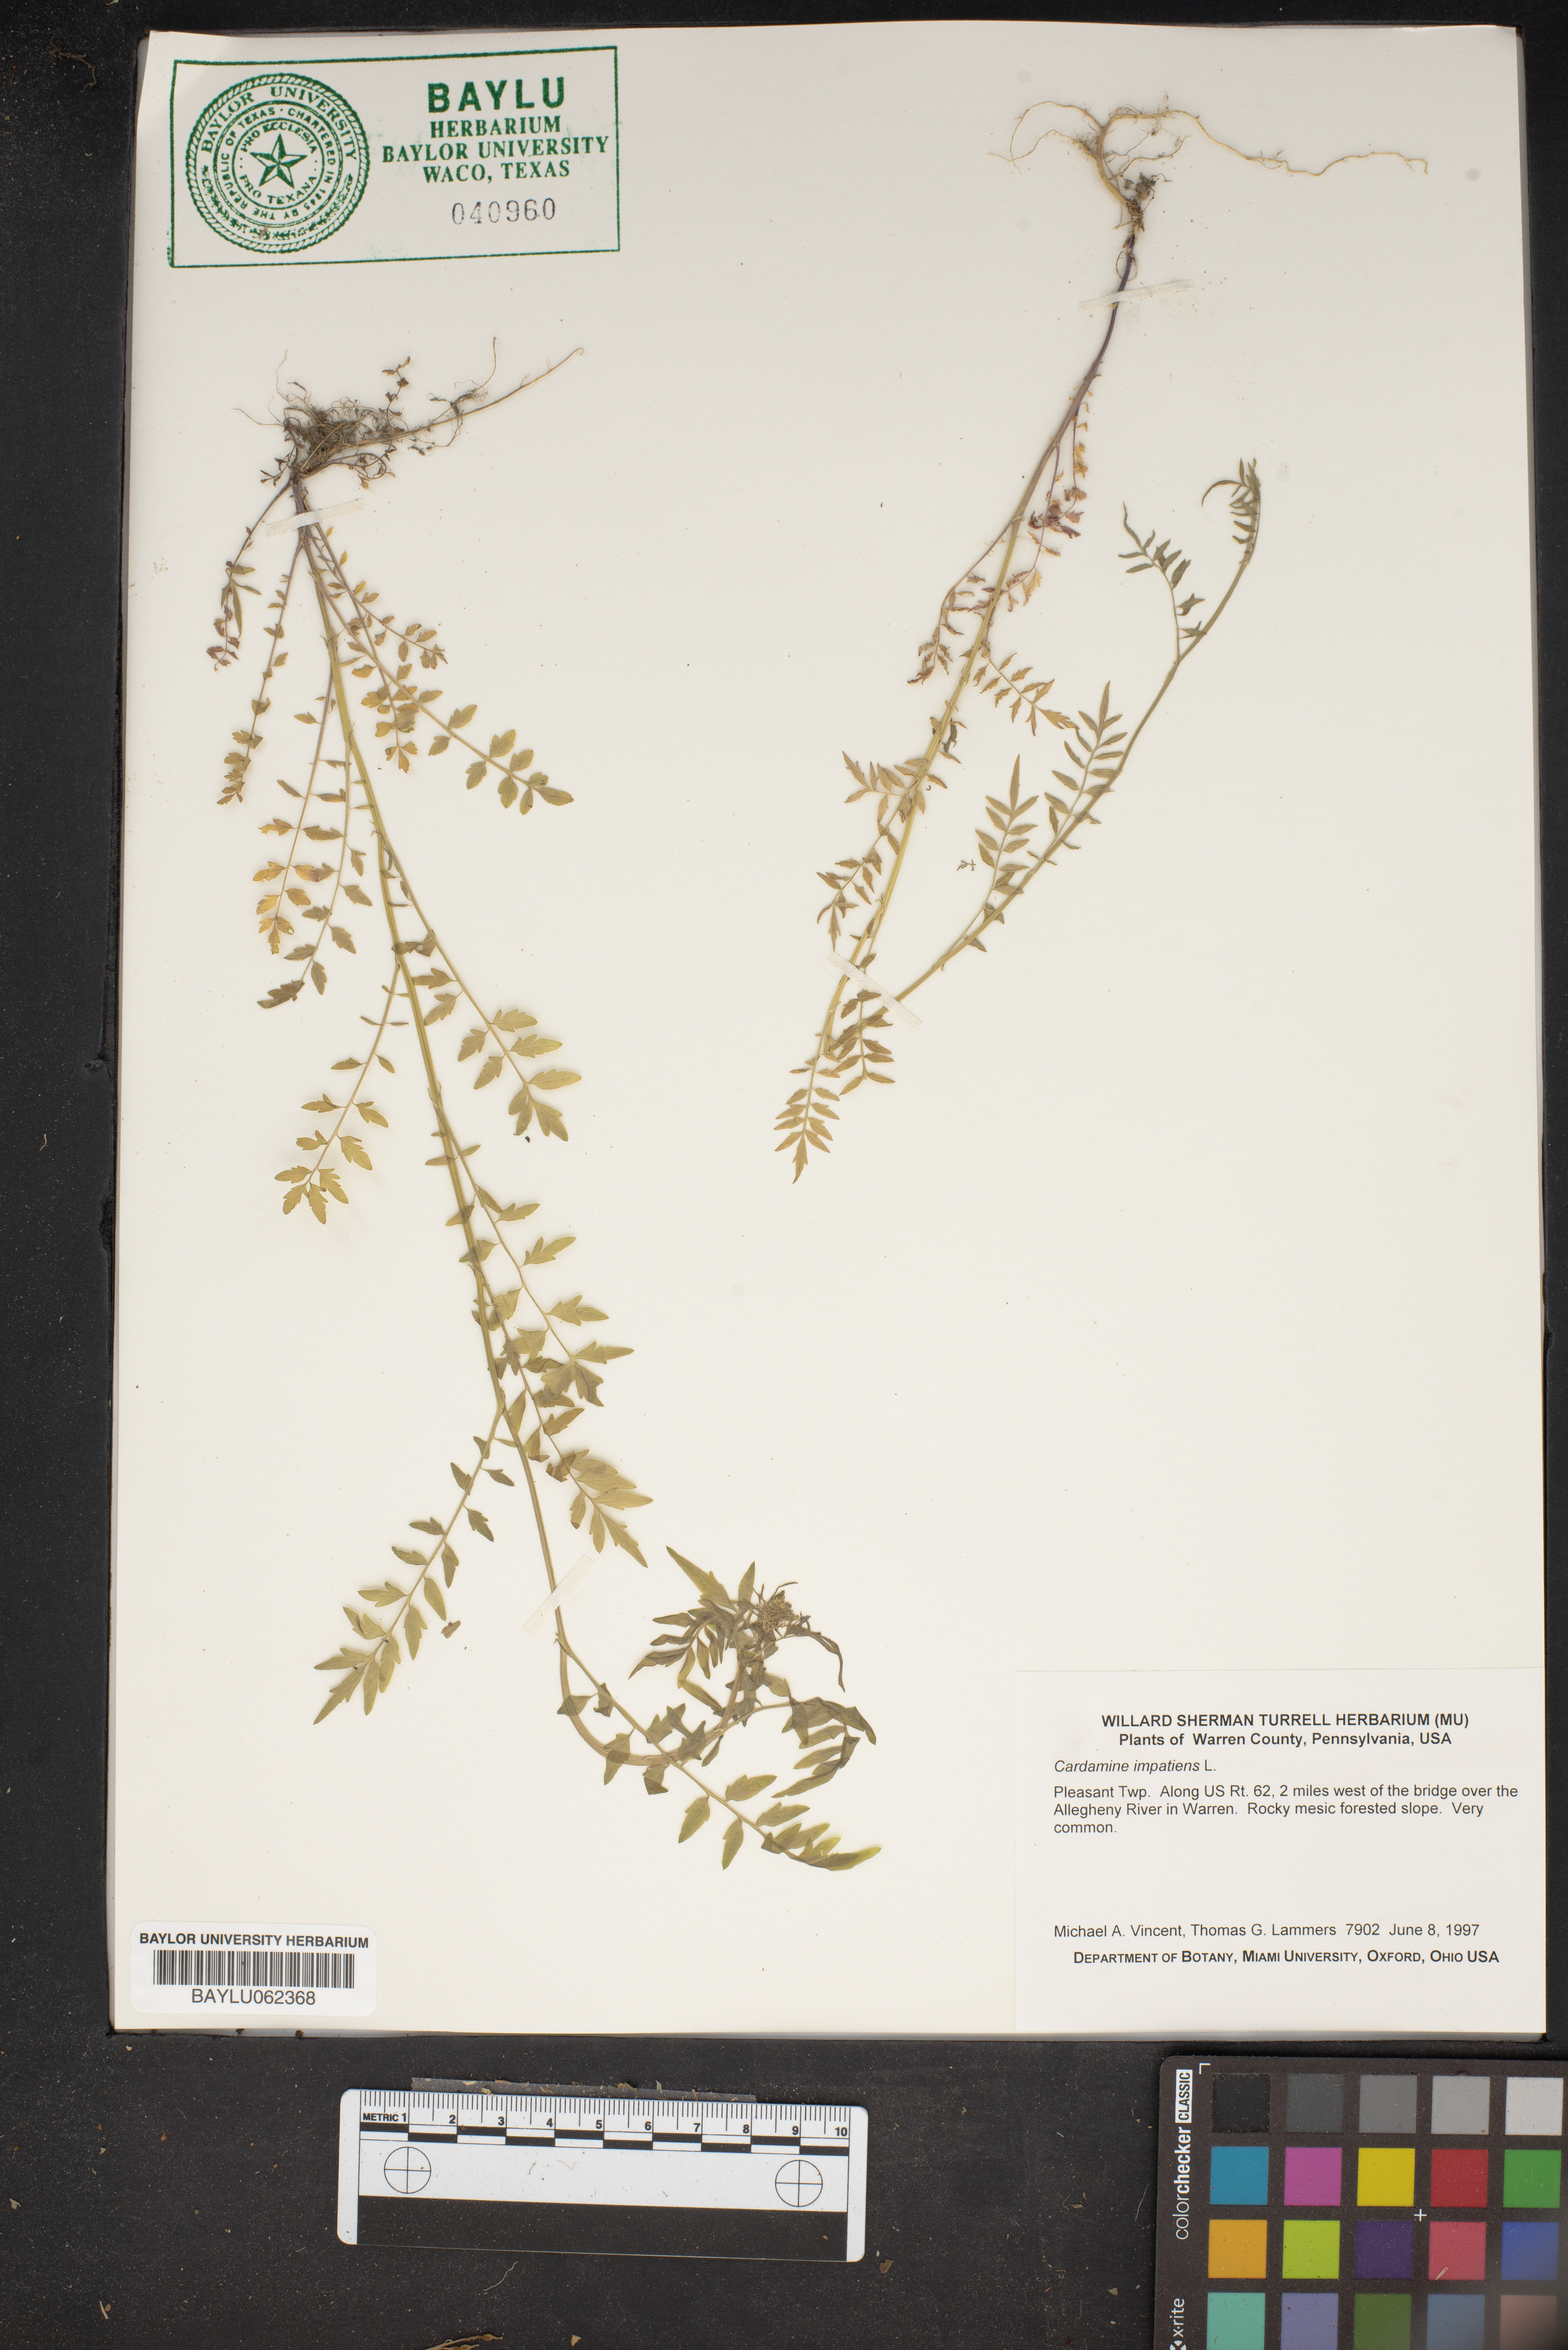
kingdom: Plantae
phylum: Tracheophyta
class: Magnoliopsida
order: Brassicales
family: Brassicaceae
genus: Cardamine
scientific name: Cardamine impatiens
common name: Narrow-leaved bitter-cress
